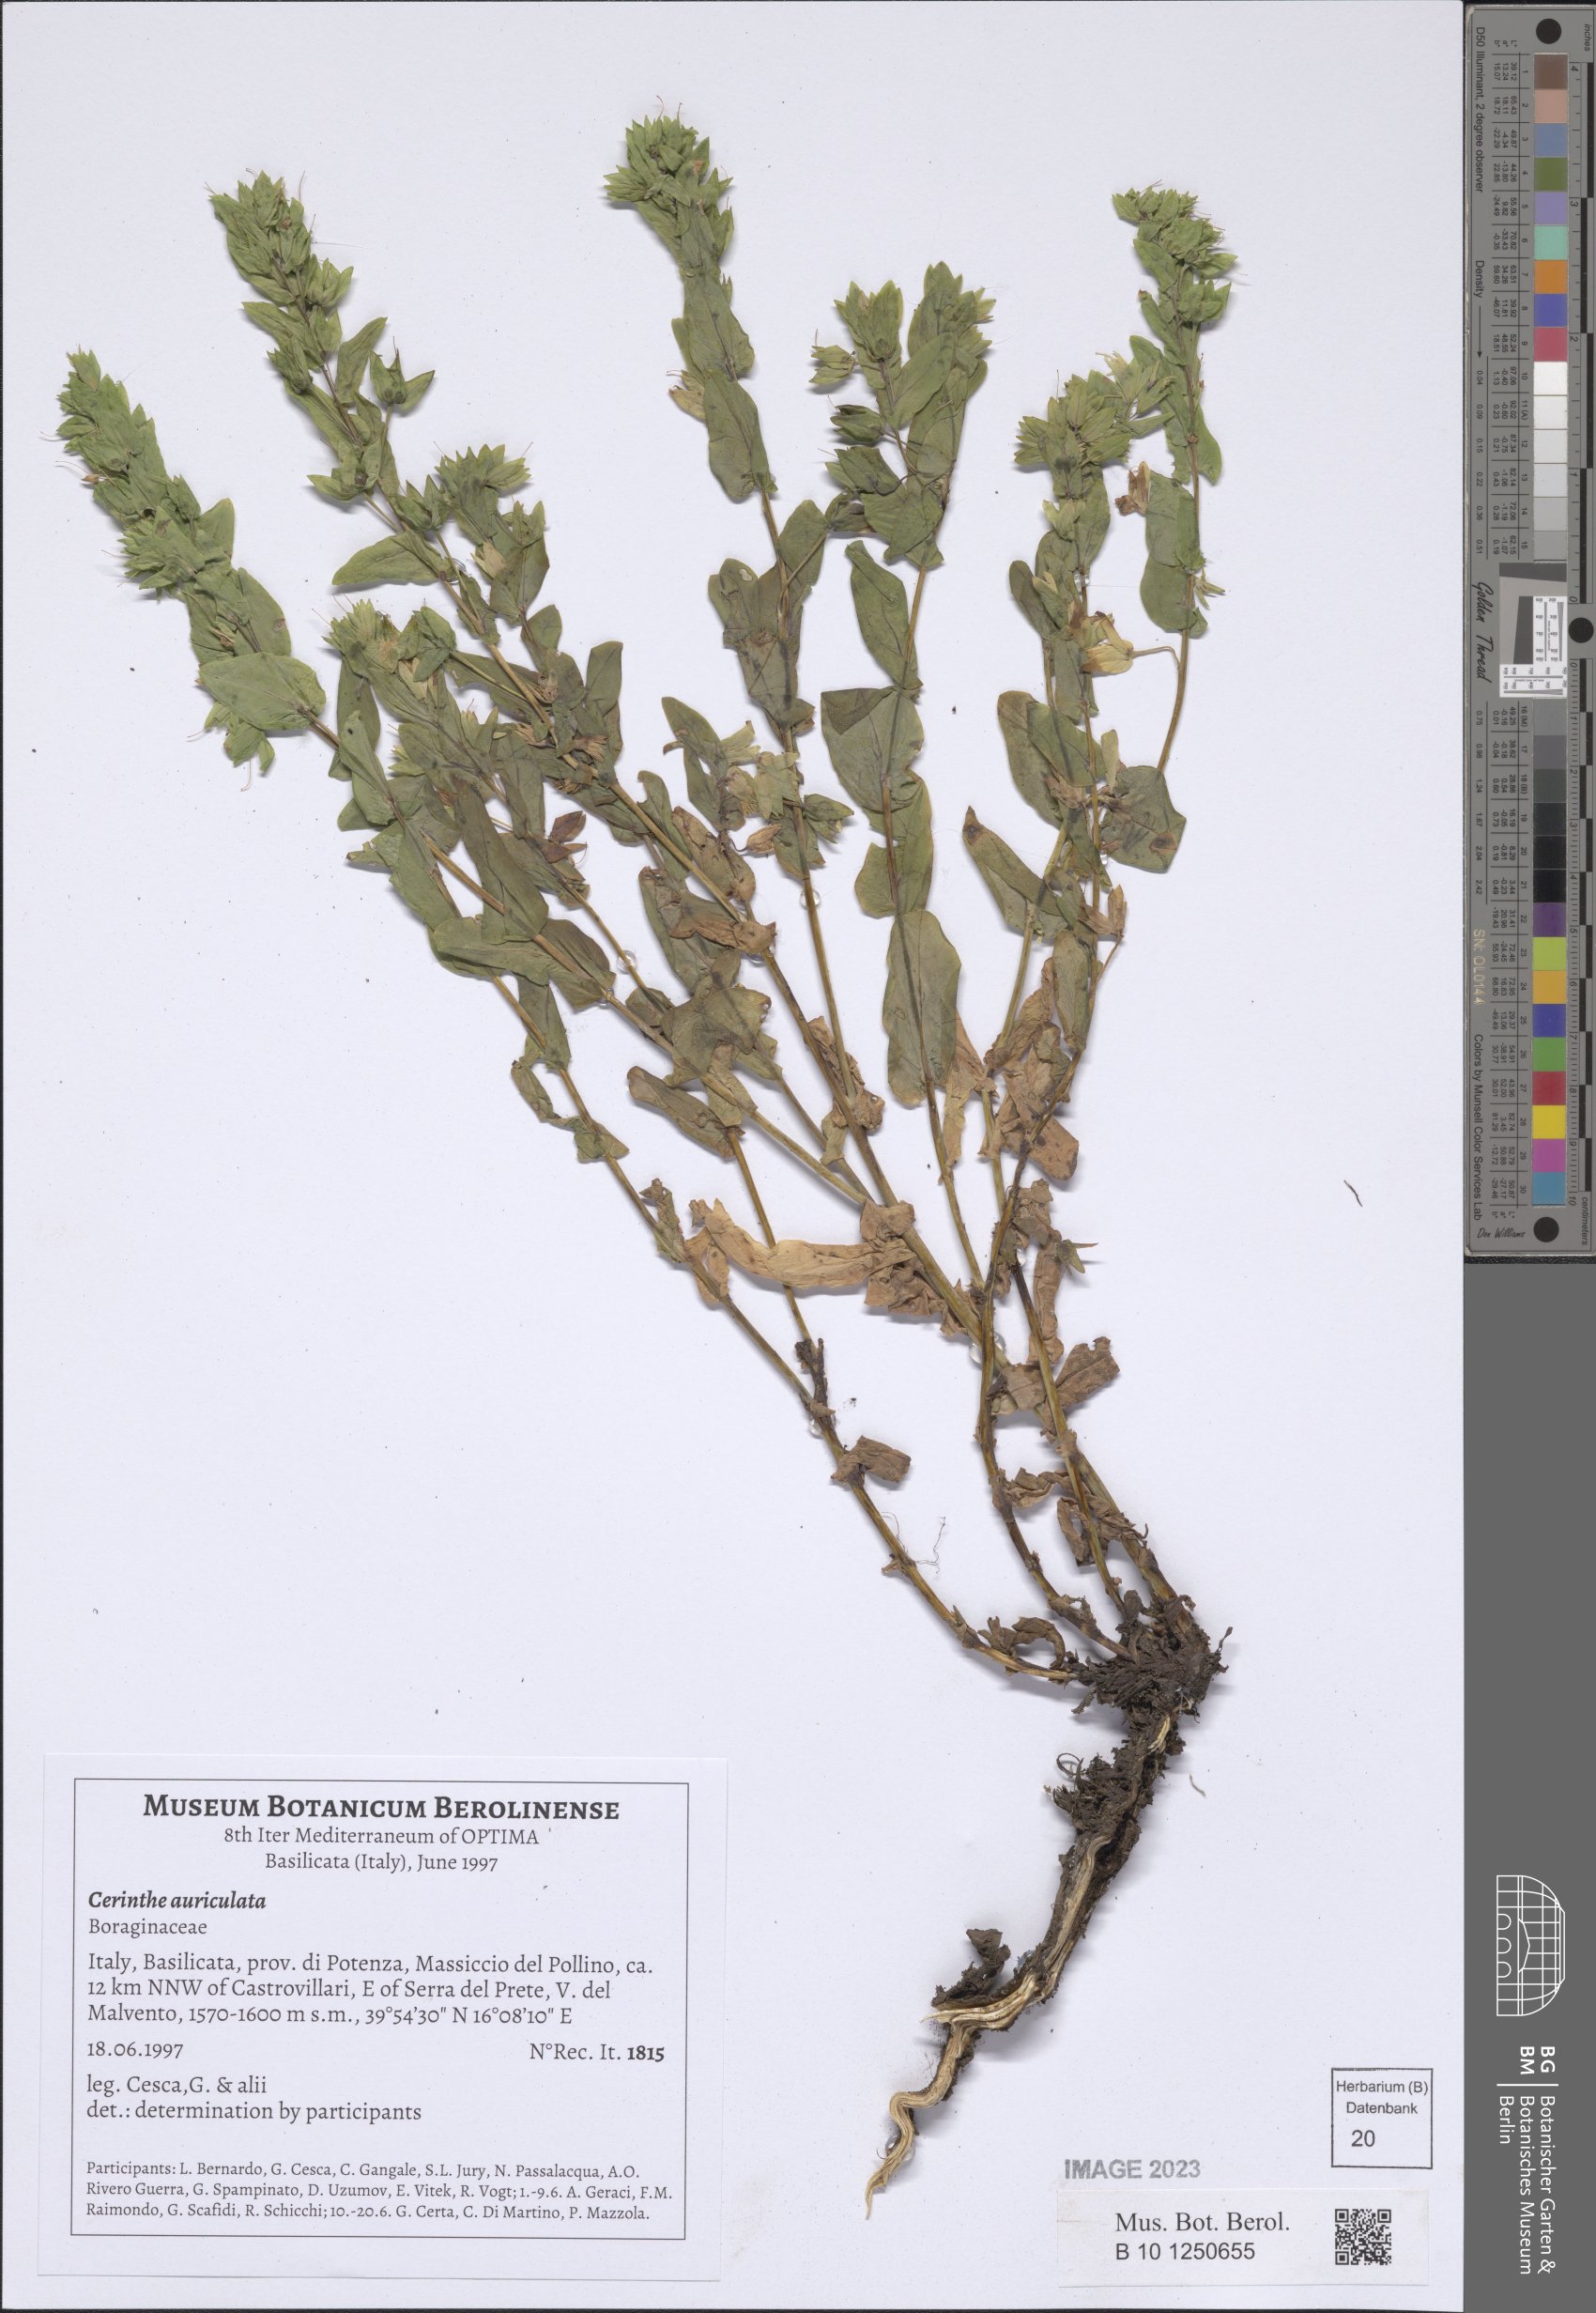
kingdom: Plantae
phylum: Tracheophyta
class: Magnoliopsida
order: Boraginales
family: Boraginaceae
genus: Cerinthe
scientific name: Cerinthe minor
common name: Lesser honeywort
